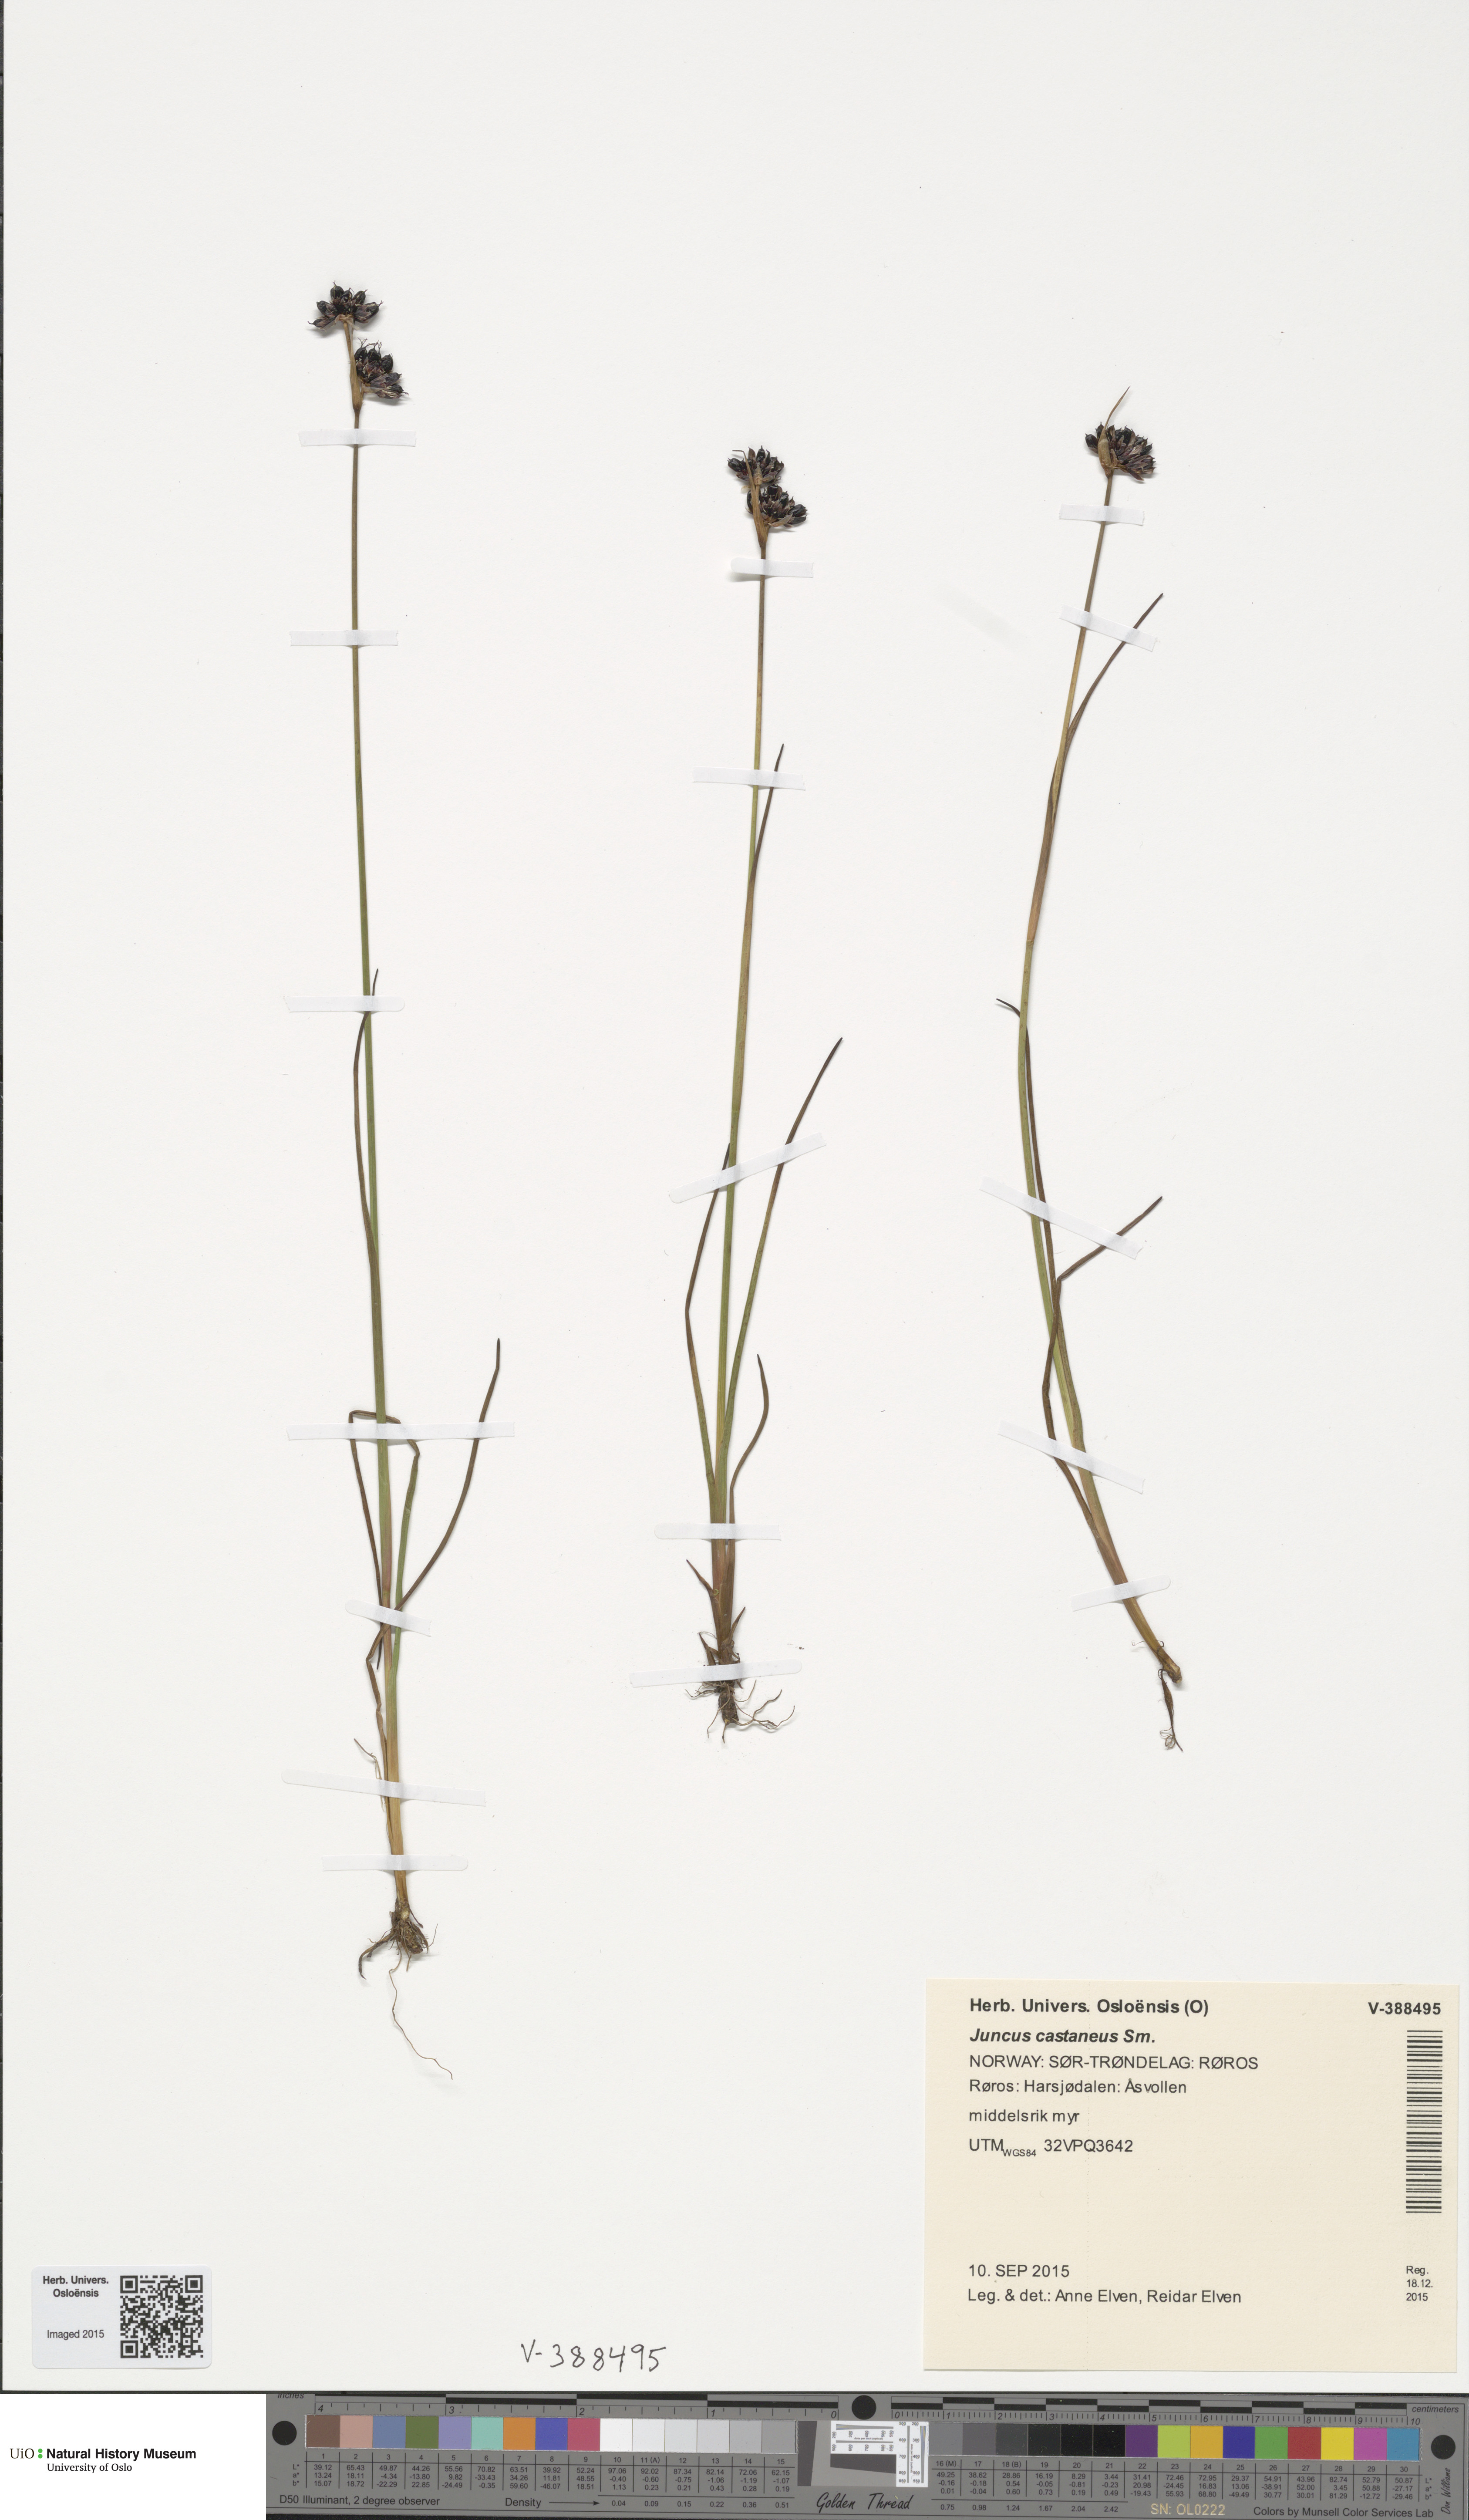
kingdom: Plantae
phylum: Tracheophyta
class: Liliopsida
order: Poales
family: Juncaceae
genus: Juncus
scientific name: Juncus castaneus
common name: Chestnut rush
